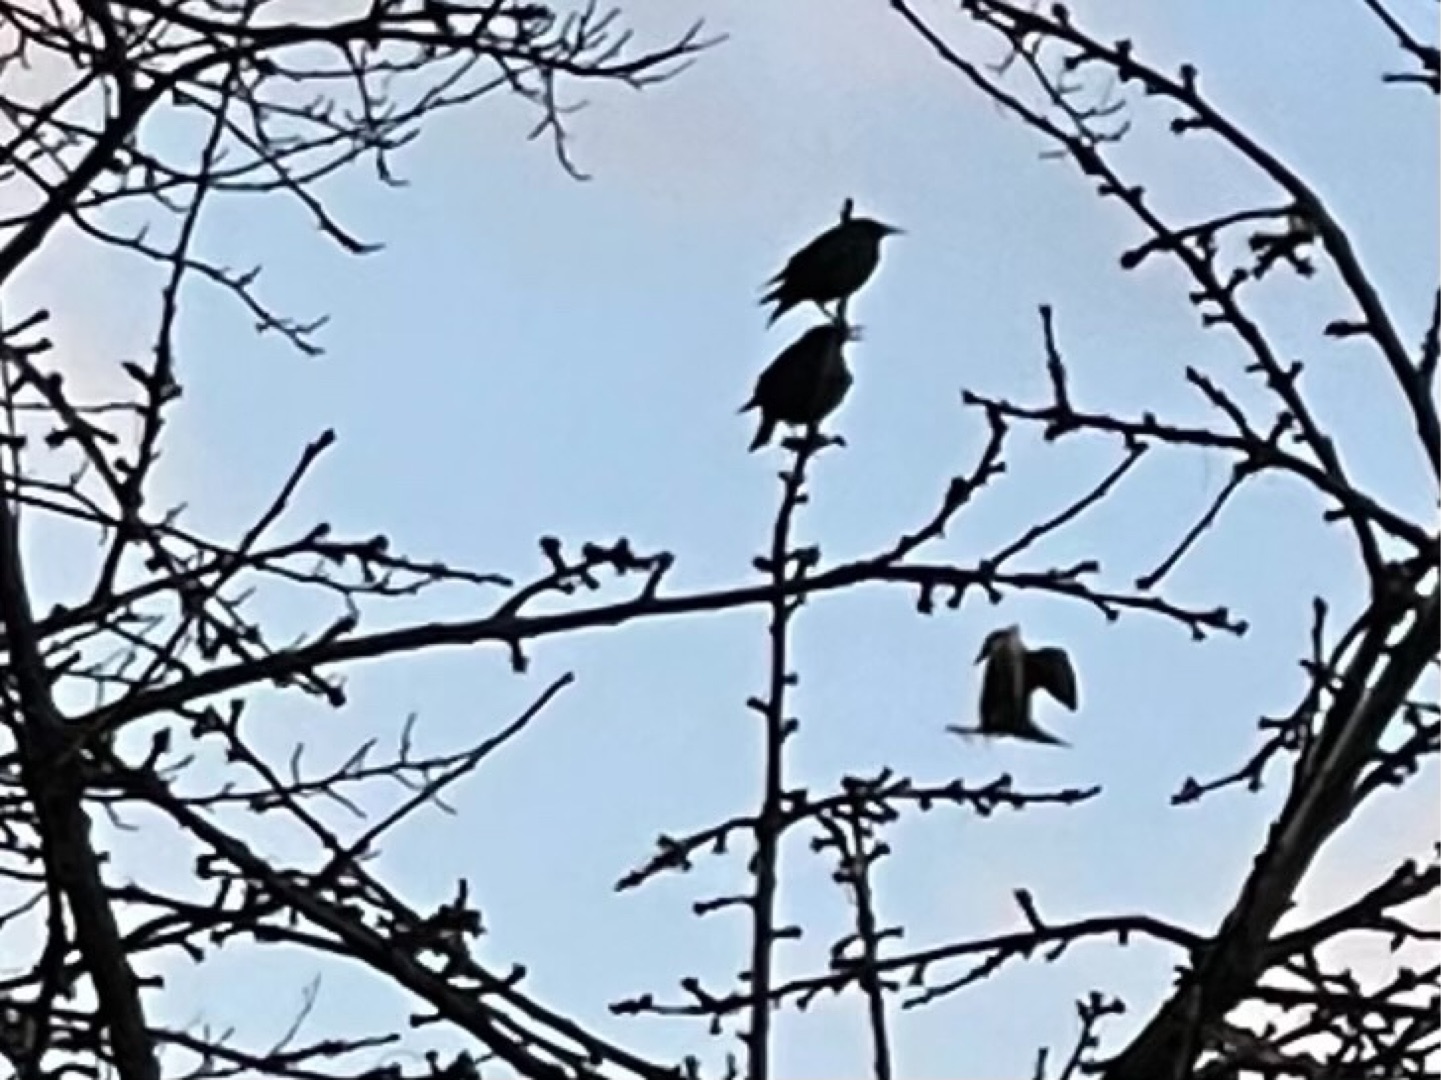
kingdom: Animalia
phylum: Chordata
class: Aves
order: Passeriformes
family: Sturnidae
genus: Sturnus
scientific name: Sturnus vulgaris
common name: Stær
